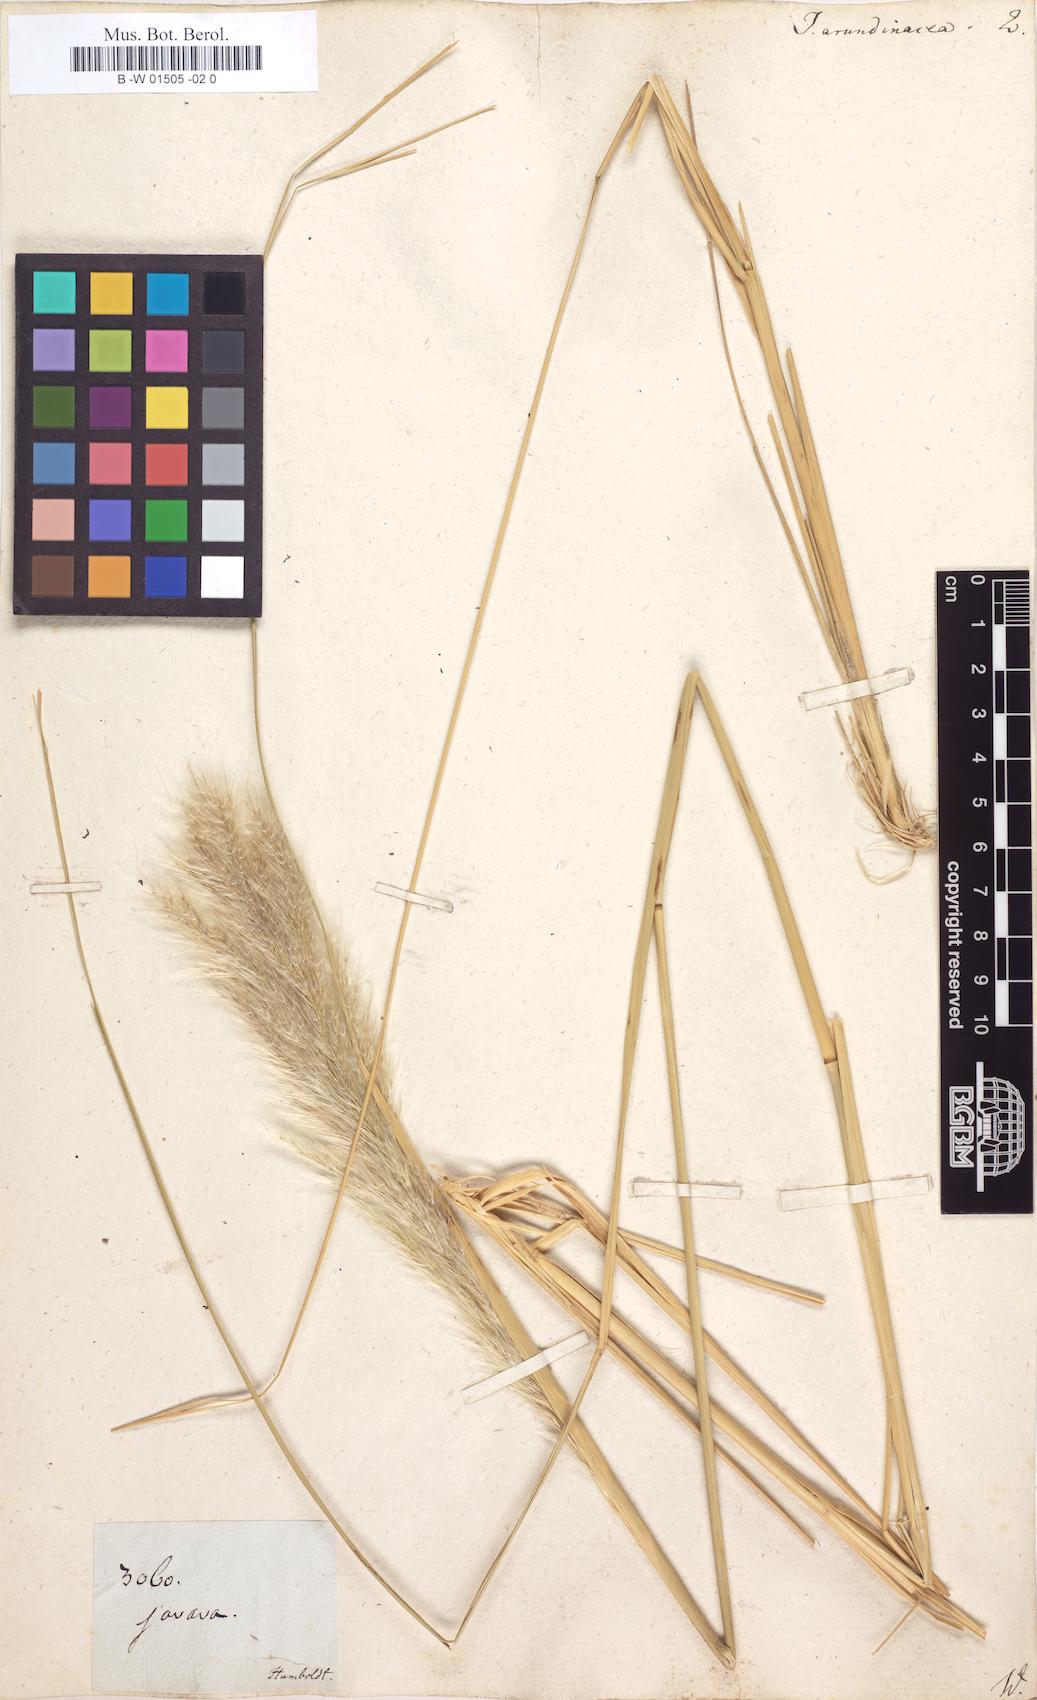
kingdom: Plantae
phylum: Tracheophyta
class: Liliopsida
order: Poales
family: Poaceae
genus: Jarava
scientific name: Jarava ichu
